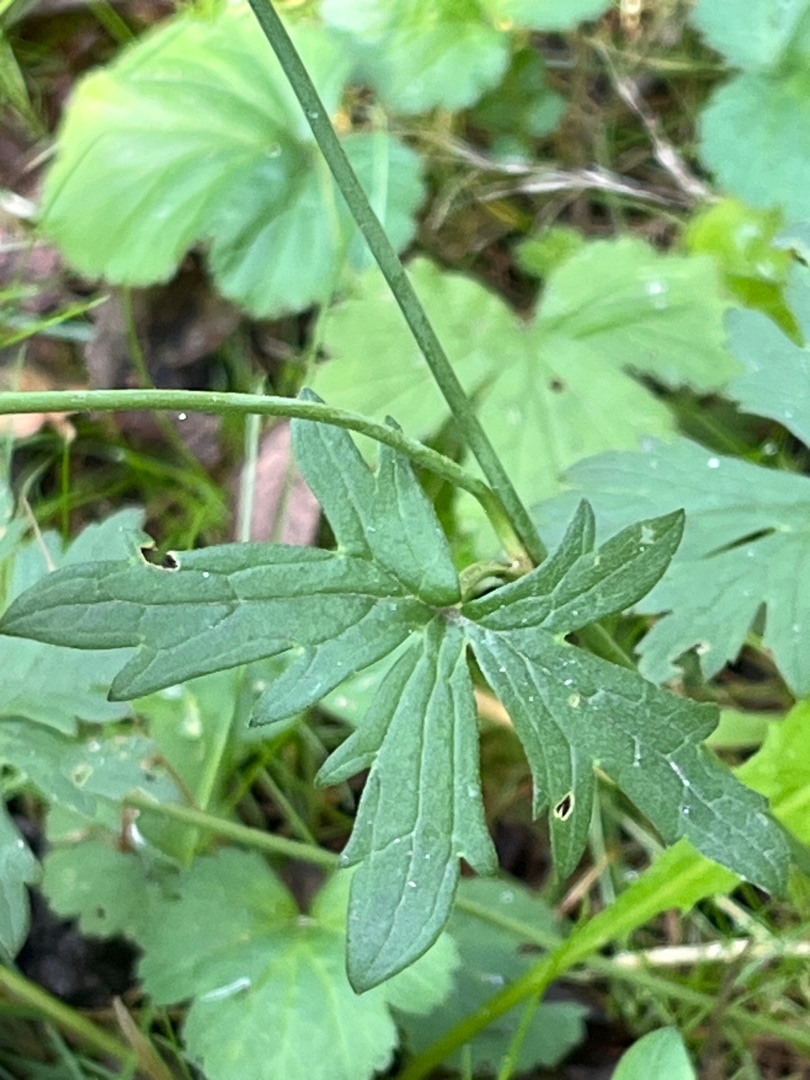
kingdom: Plantae
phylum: Tracheophyta
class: Magnoliopsida
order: Ranunculales
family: Ranunculaceae
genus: Ranunculus
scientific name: Ranunculus acris
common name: Bidende ranunkel
